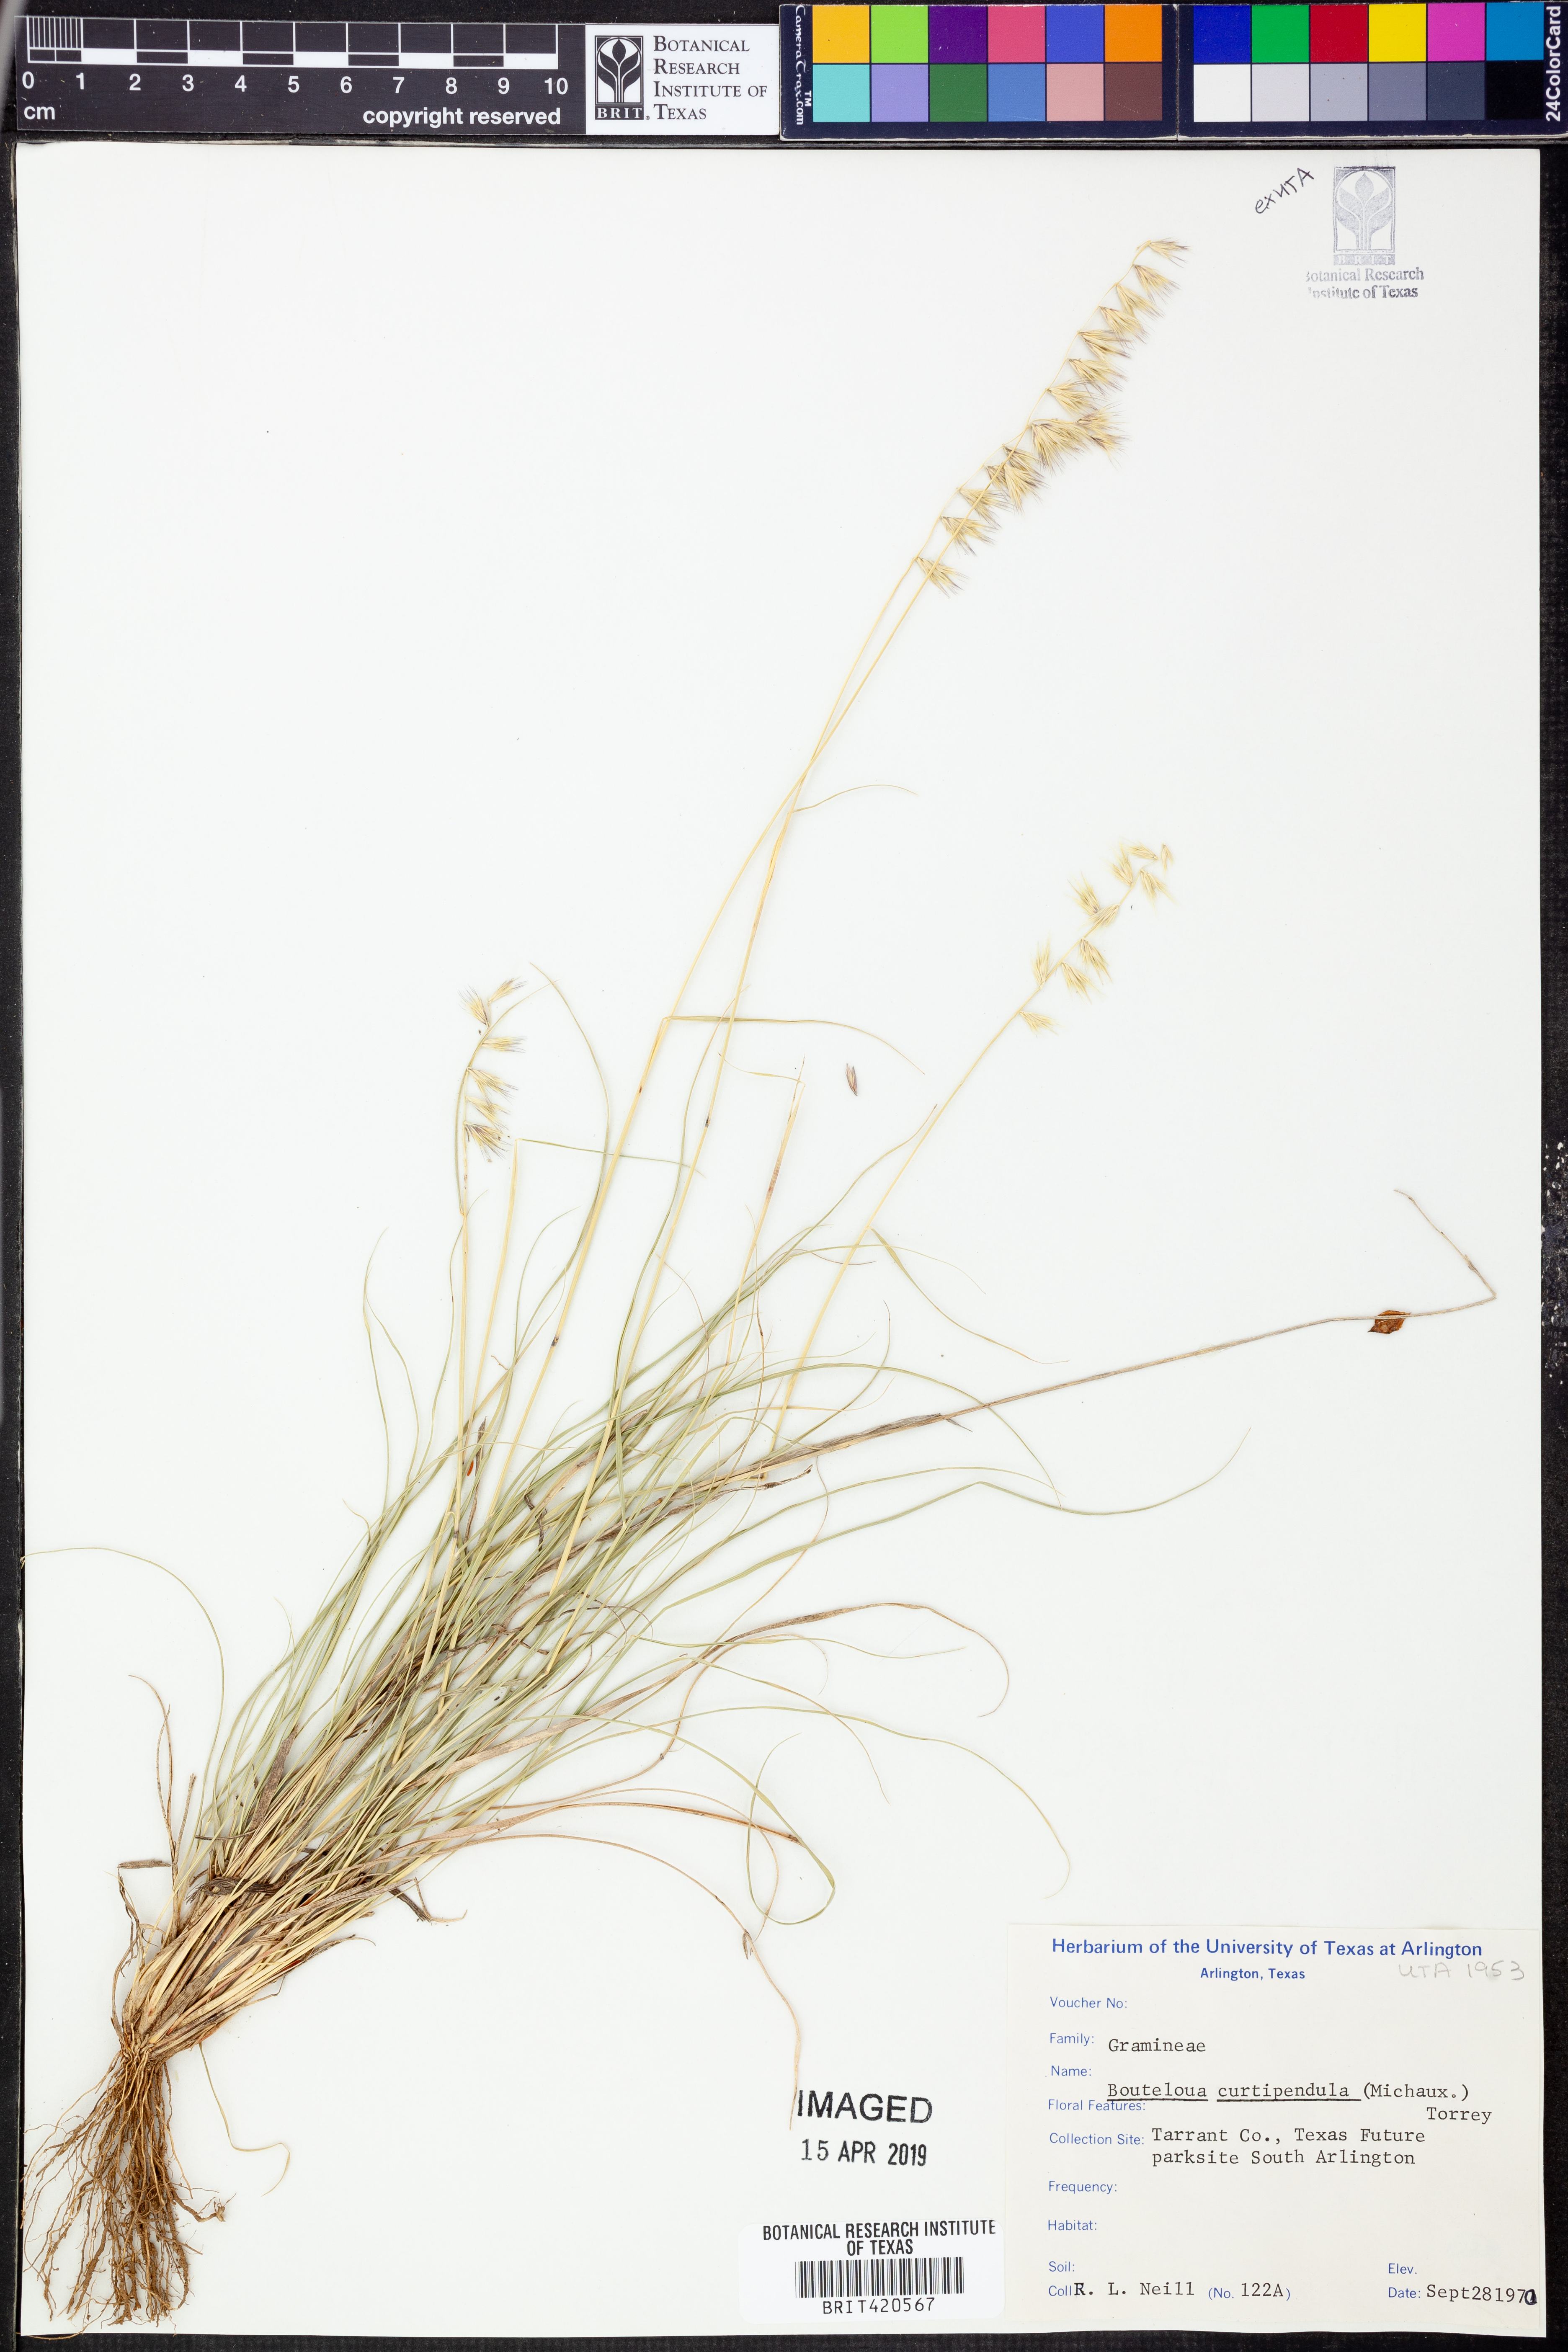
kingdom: Plantae
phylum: Tracheophyta
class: Liliopsida
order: Poales
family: Poaceae
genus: Bouteloua
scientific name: Bouteloua curtipendula
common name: Side-oats grama
